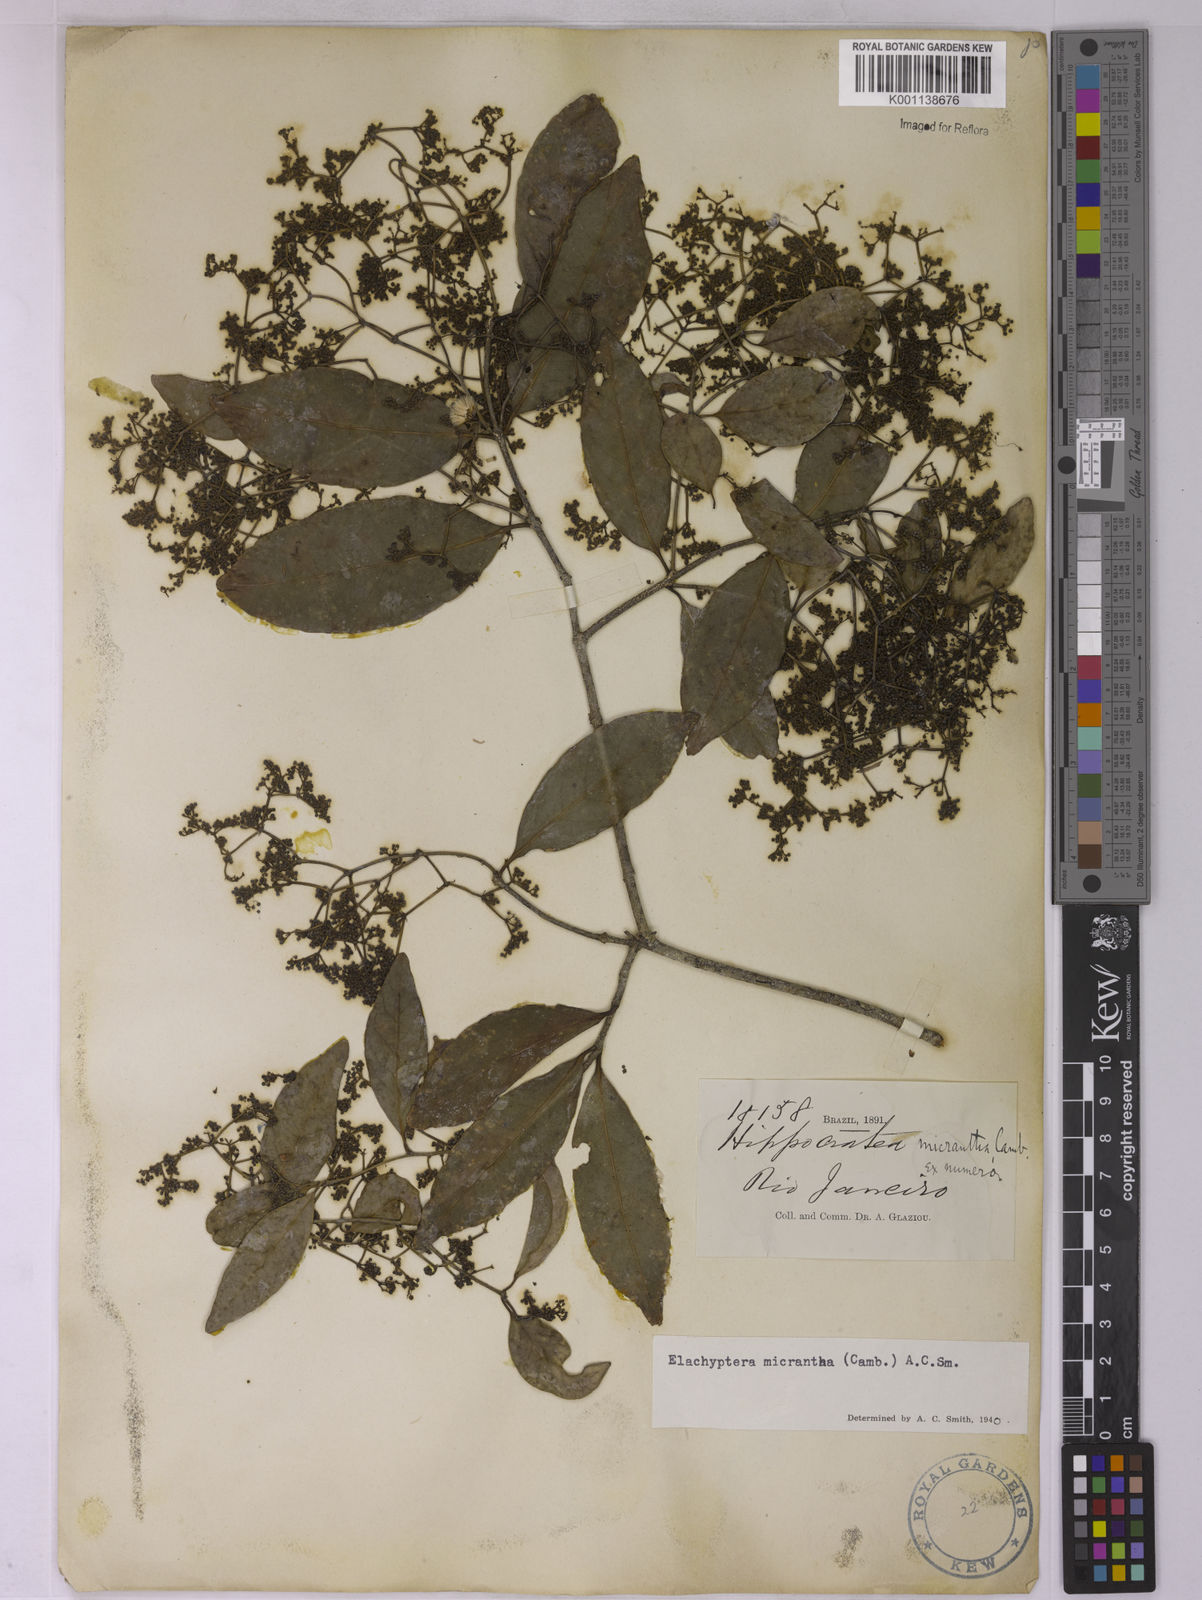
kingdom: Plantae
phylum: Tracheophyta
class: Magnoliopsida
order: Celastrales
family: Celastraceae
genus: Elachyptera
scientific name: Elachyptera micrantha
